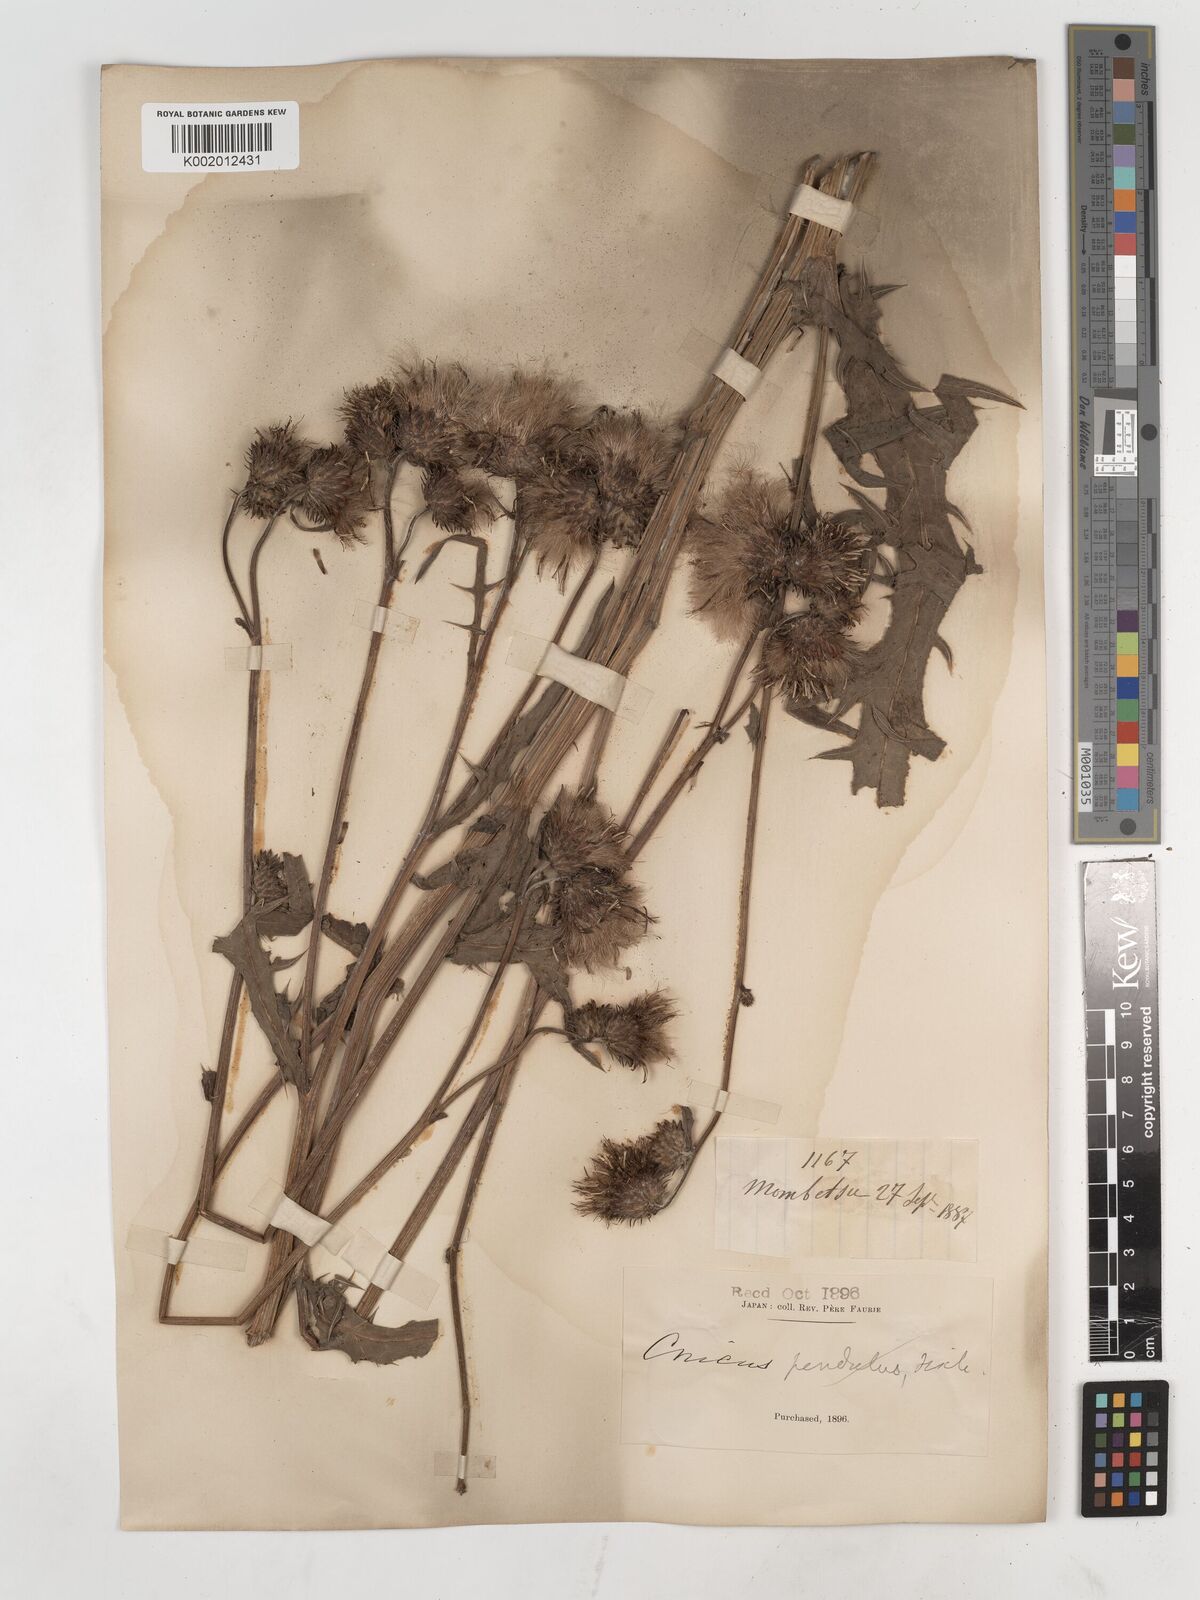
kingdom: Plantae
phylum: Tracheophyta
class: Magnoliopsida
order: Asterales
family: Asteraceae
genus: Cirsium
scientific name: Cirsium
